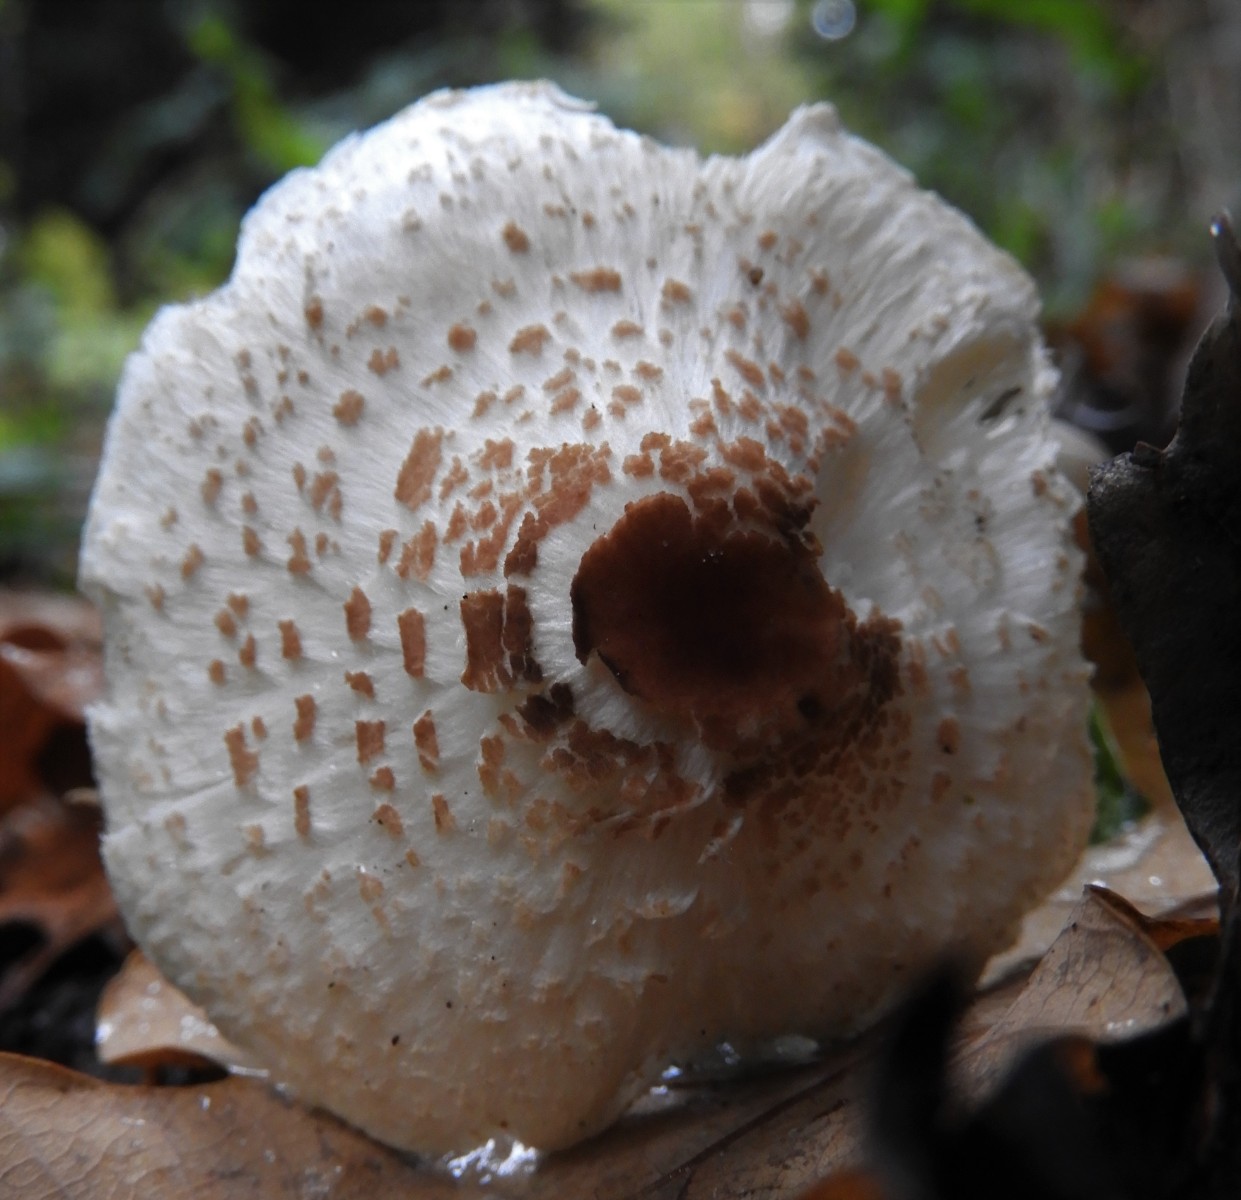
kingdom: Fungi
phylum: Basidiomycota
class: Agaricomycetes
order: Agaricales
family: Agaricaceae
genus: Lepiota
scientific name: Lepiota cristata
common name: stinkende parasolhat
